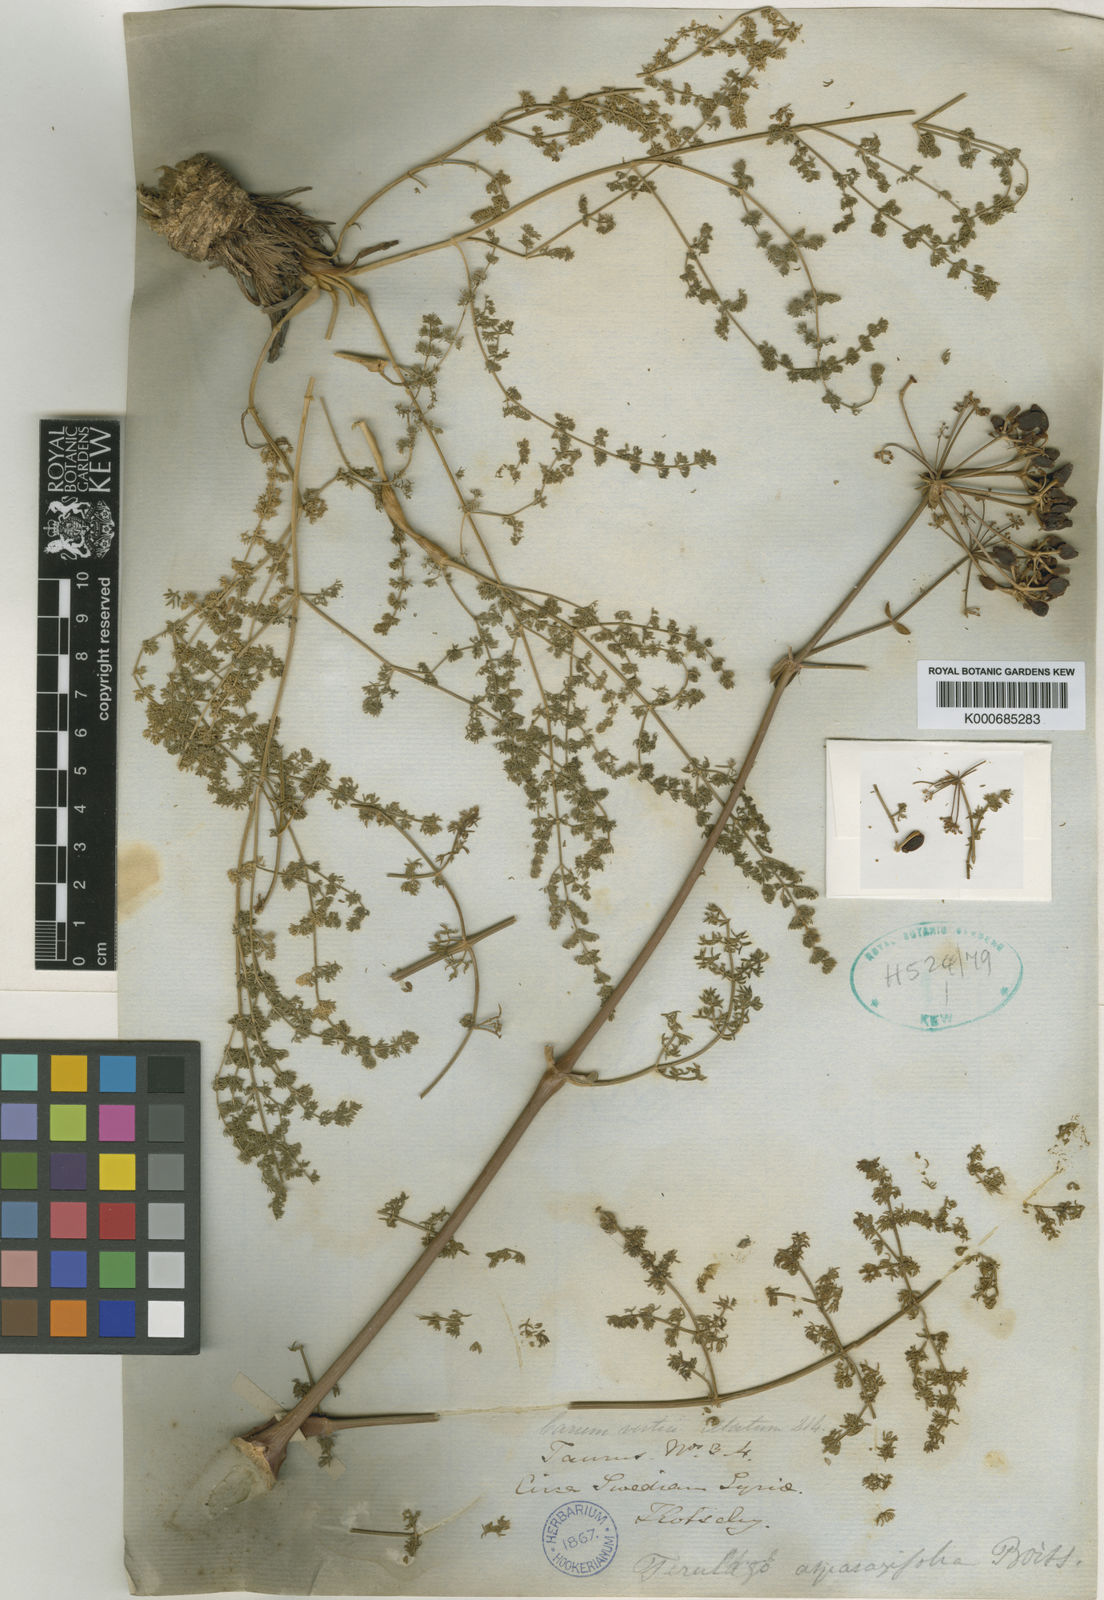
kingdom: Plantae
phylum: Tracheophyta
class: Magnoliopsida
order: Apiales
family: Apiaceae
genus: Ferulago
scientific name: Ferulago asparagifolia
